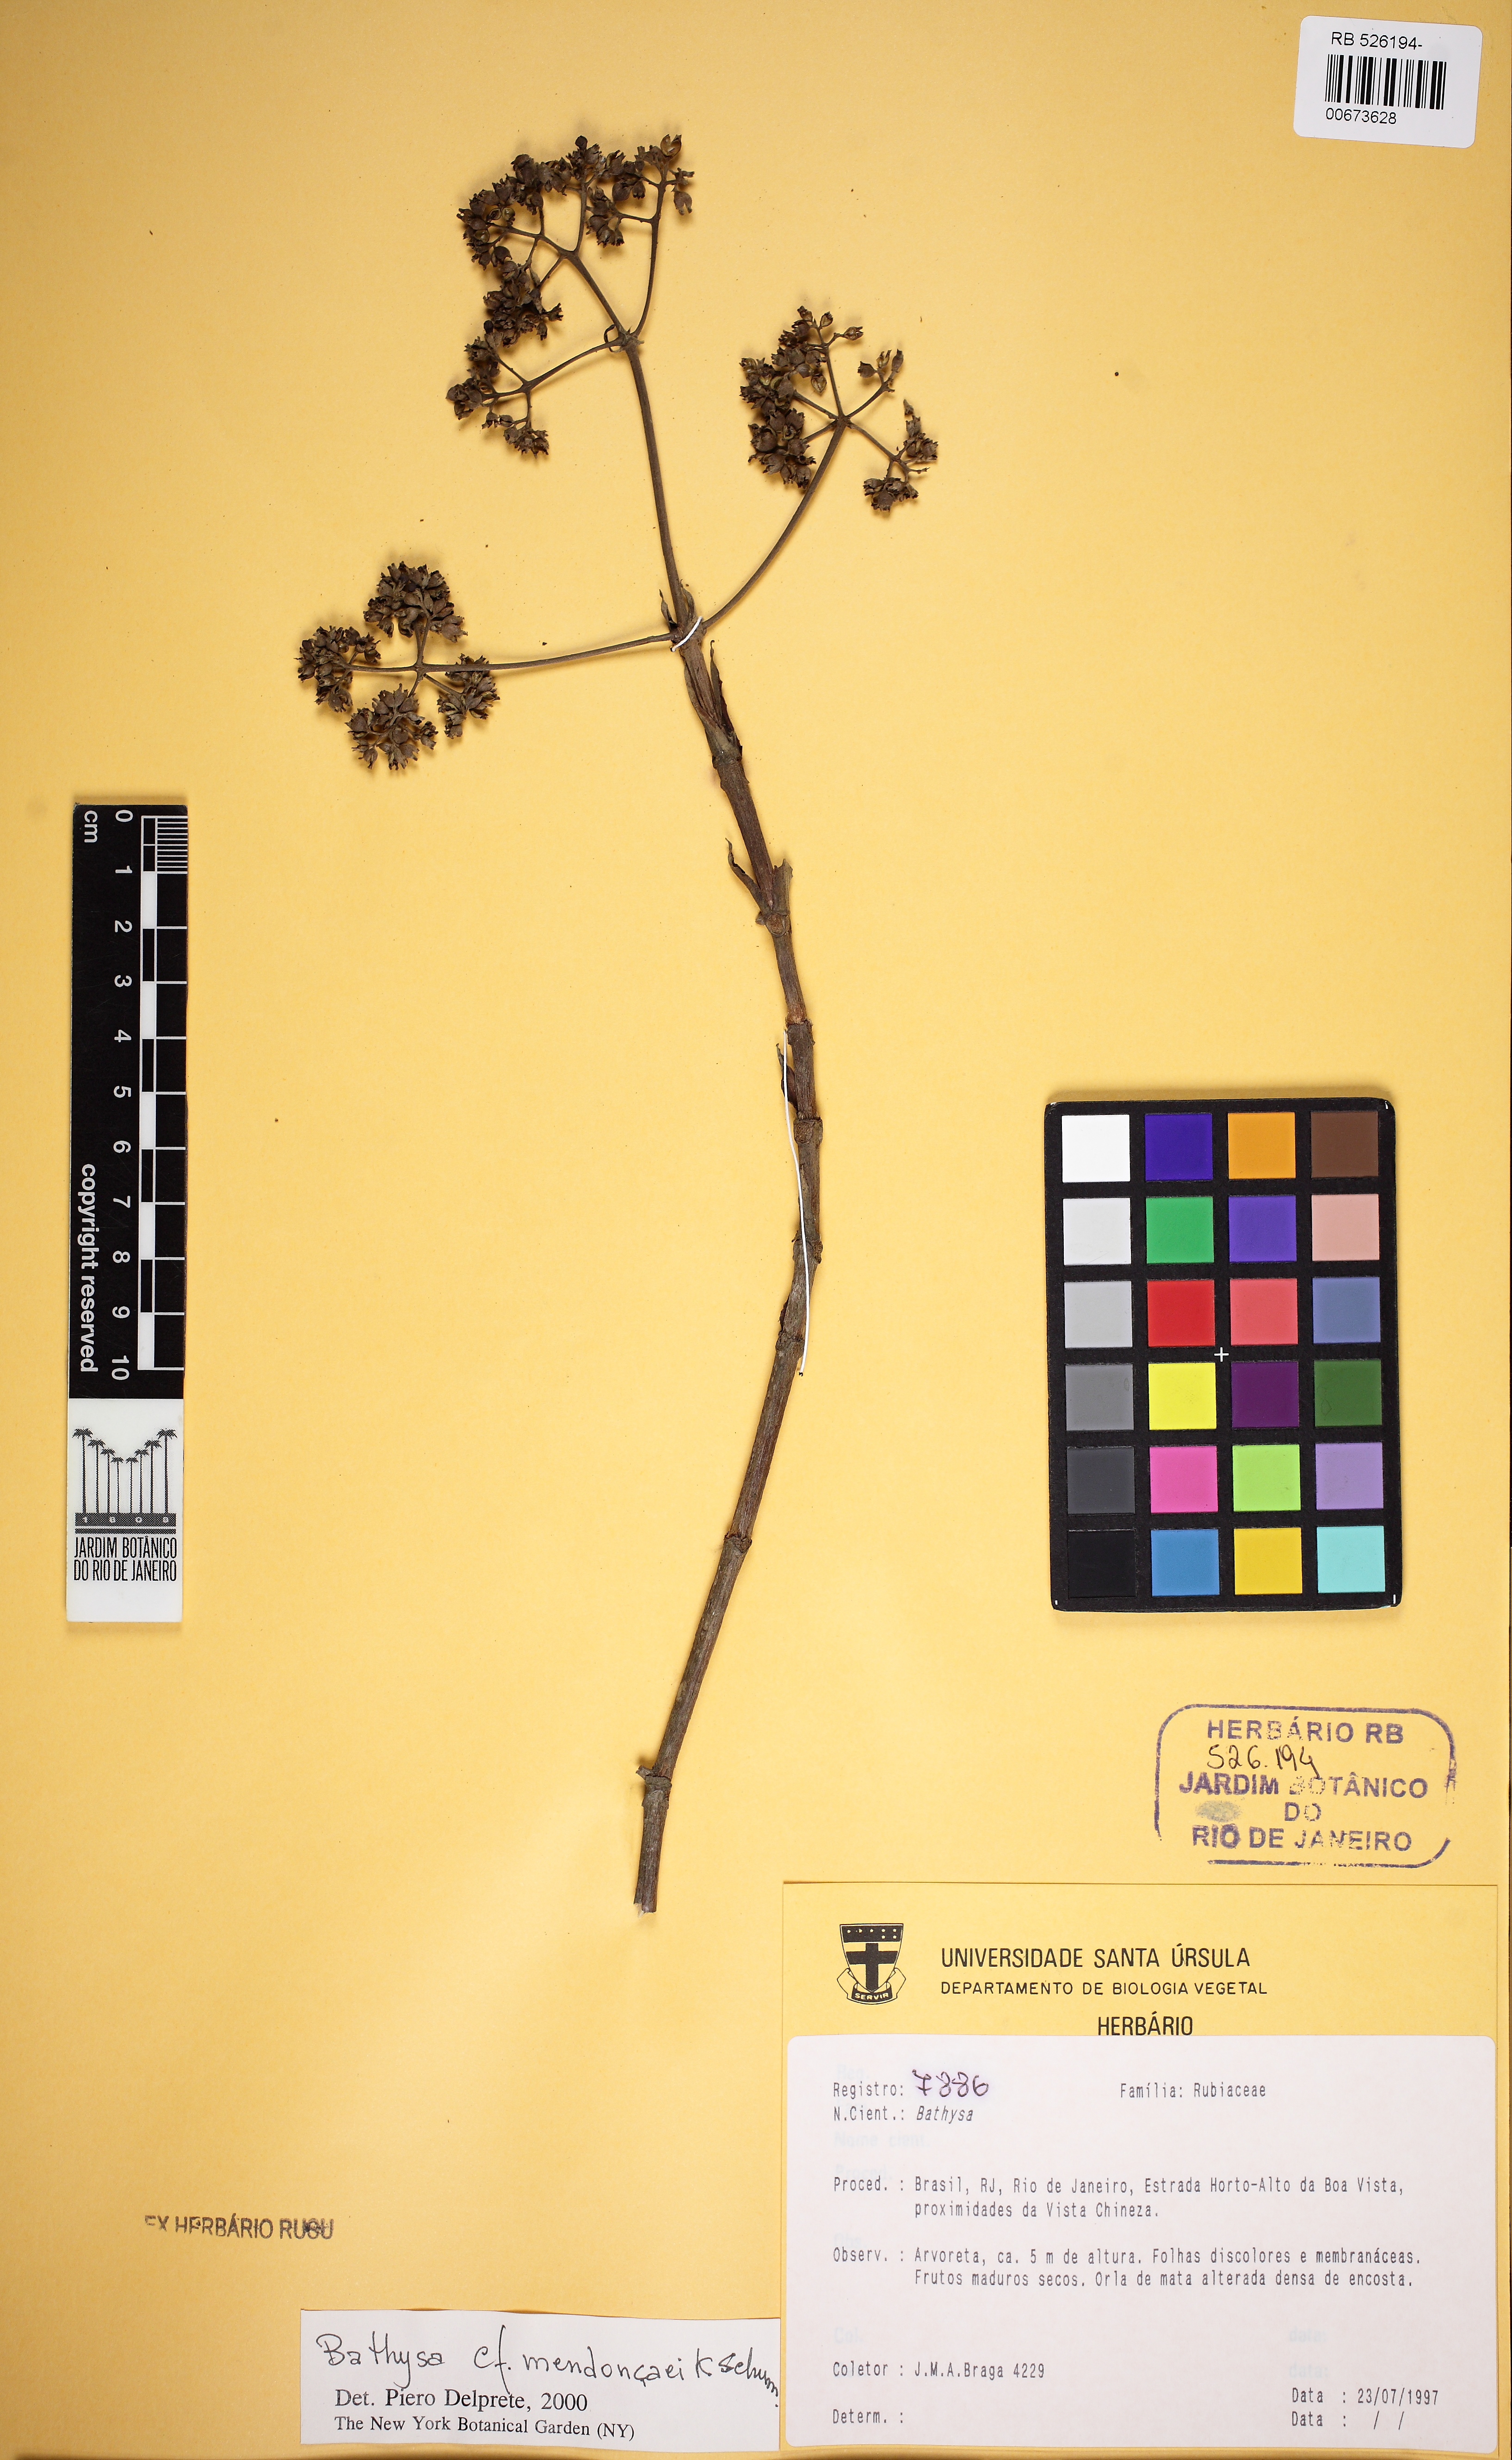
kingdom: Plantae
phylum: Tracheophyta
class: Magnoliopsida
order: Gentianales
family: Rubiaceae
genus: Bathysa
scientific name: Bathysa mendoncaei
